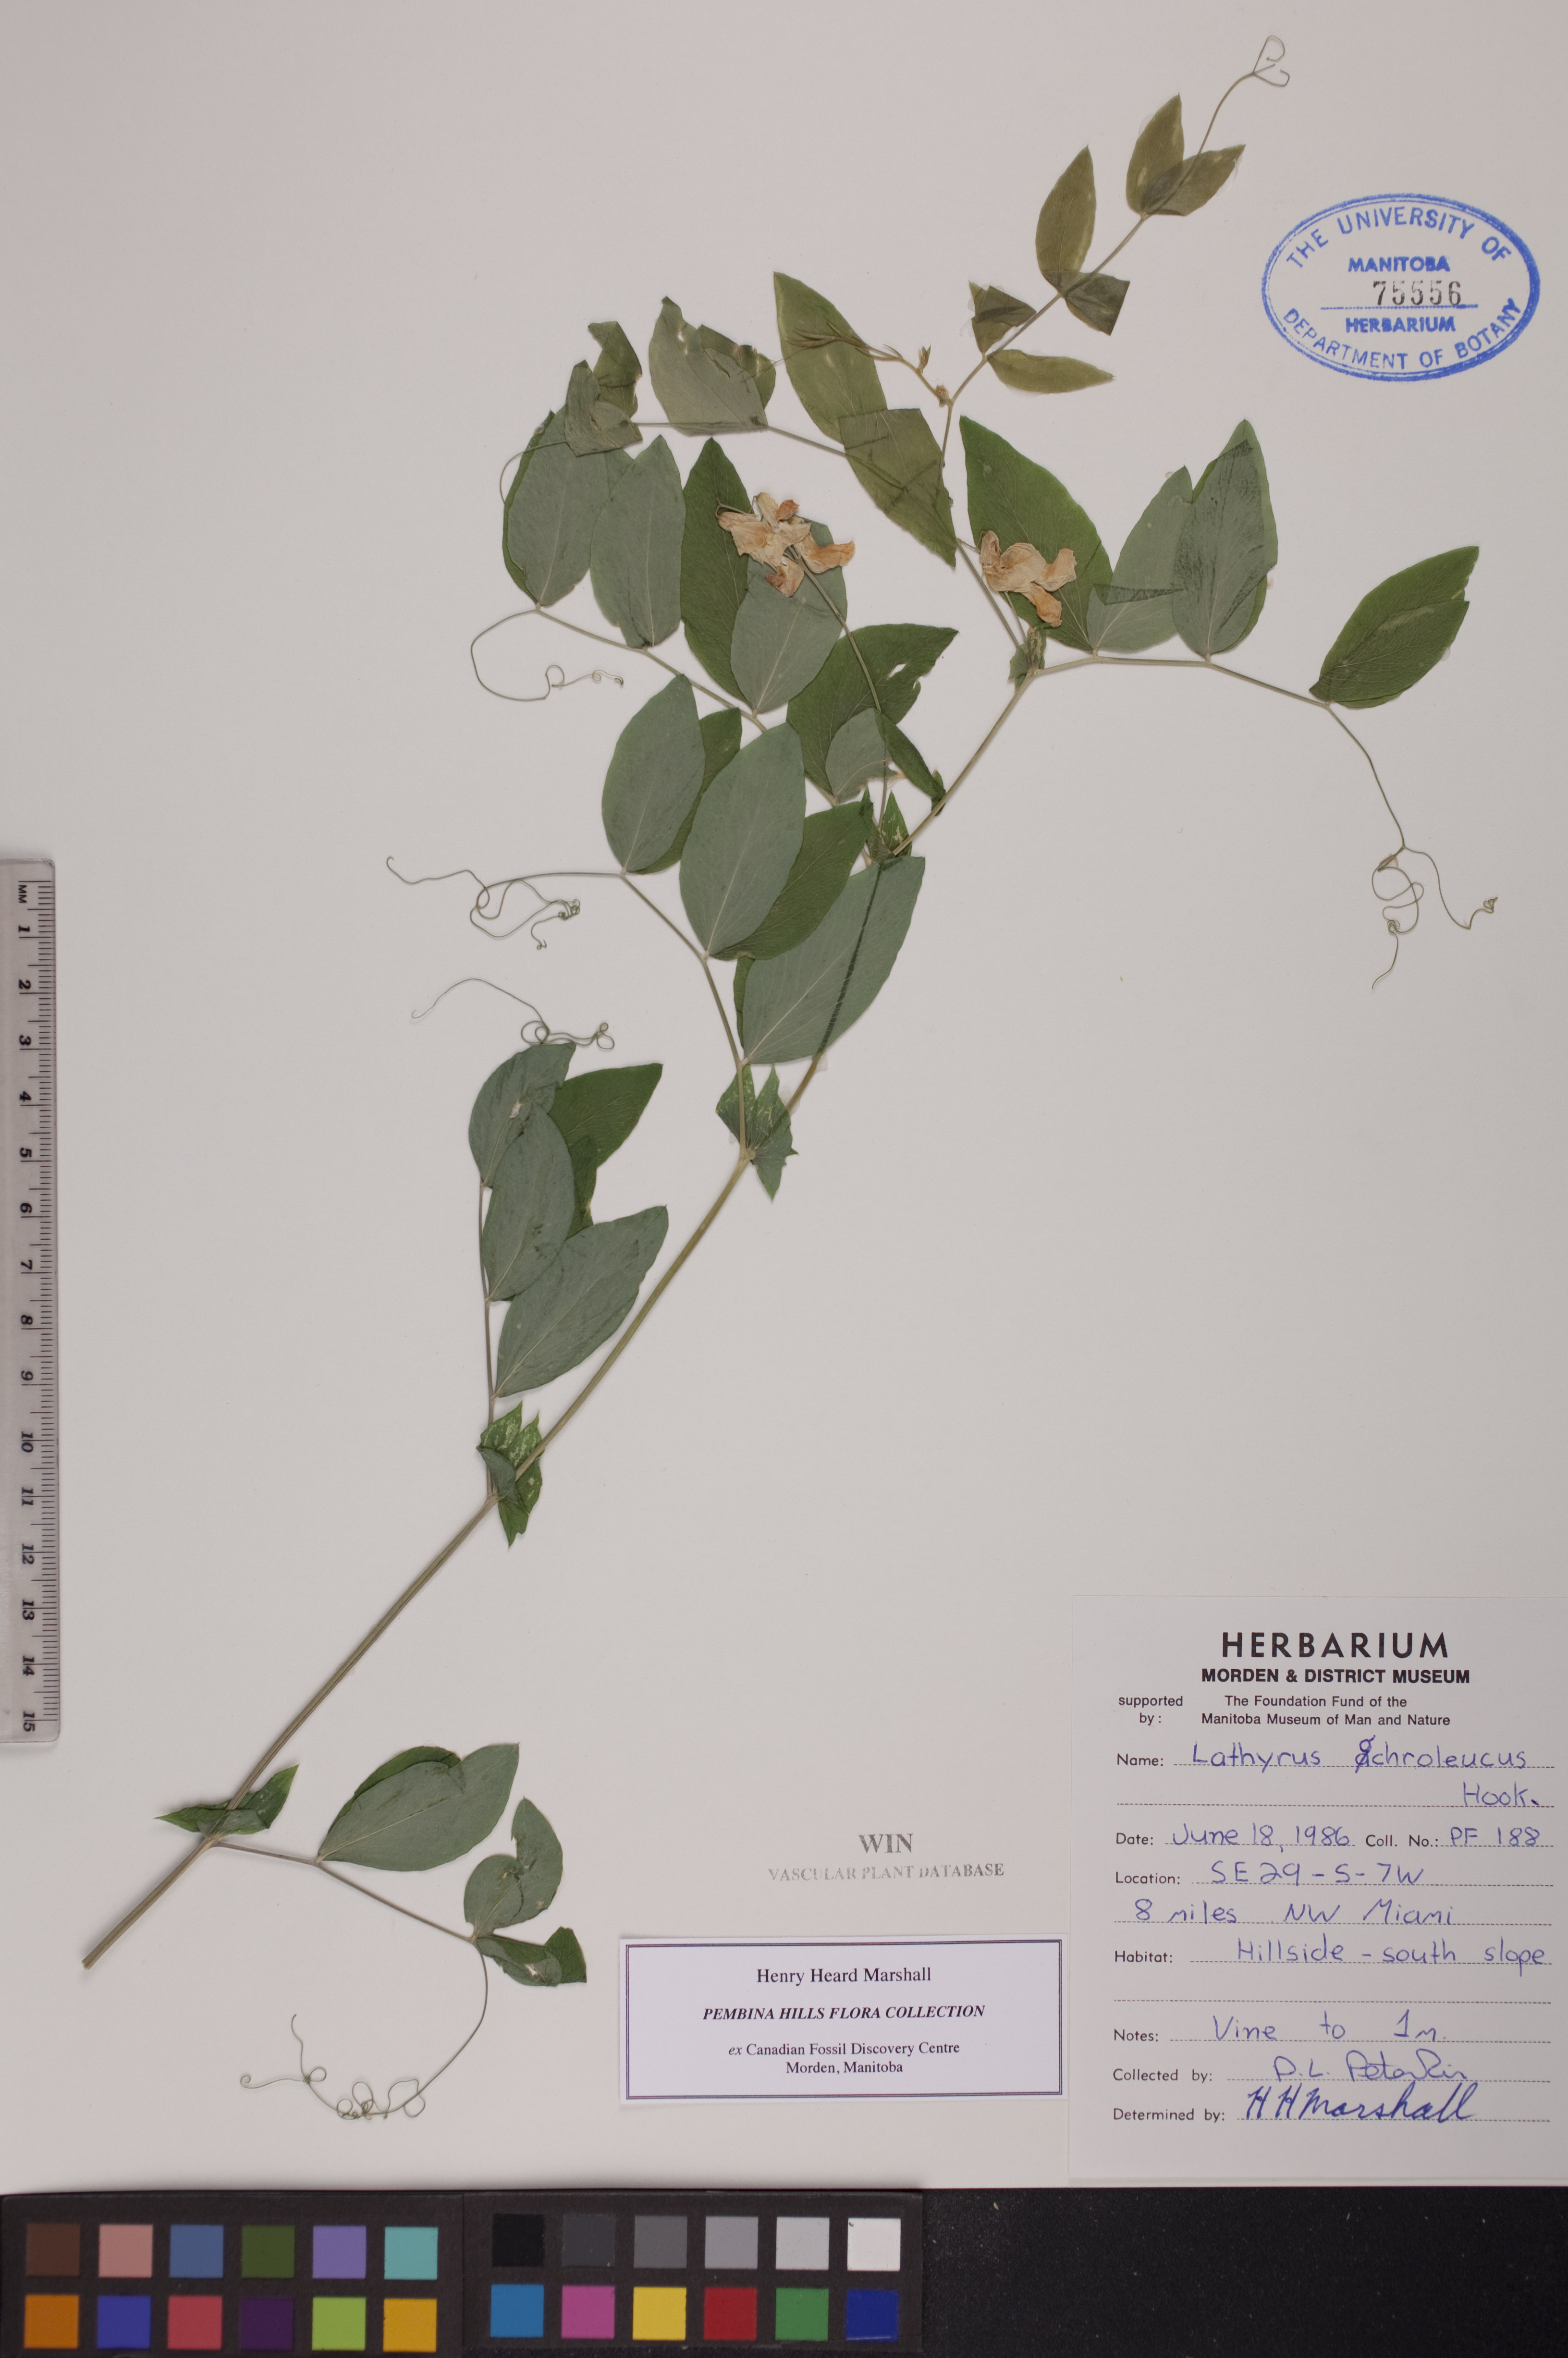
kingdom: Plantae
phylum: Tracheophyta
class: Magnoliopsida
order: Fabales
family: Fabaceae
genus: Lathyrus
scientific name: Lathyrus ochroleucus
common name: Pale vetchling
